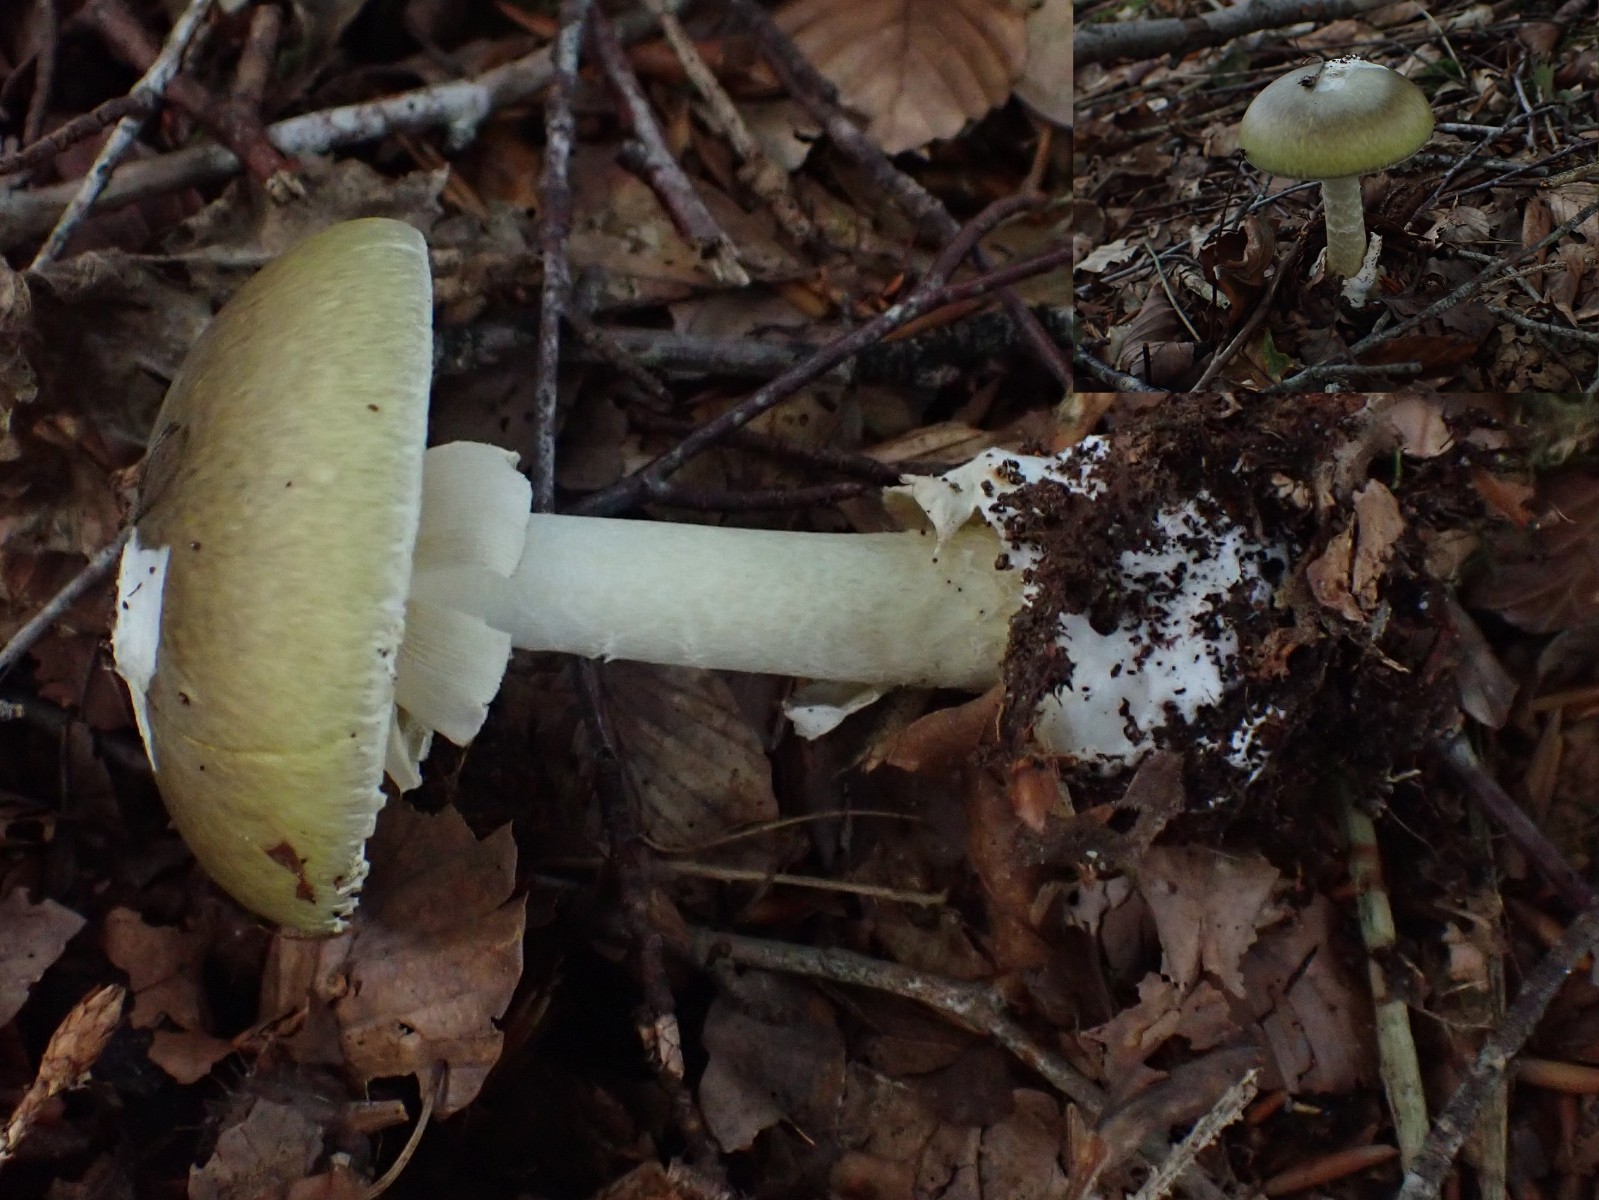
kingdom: Fungi
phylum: Basidiomycota
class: Agaricomycetes
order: Agaricales
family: Amanitaceae
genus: Amanita
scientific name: Amanita phalloides
